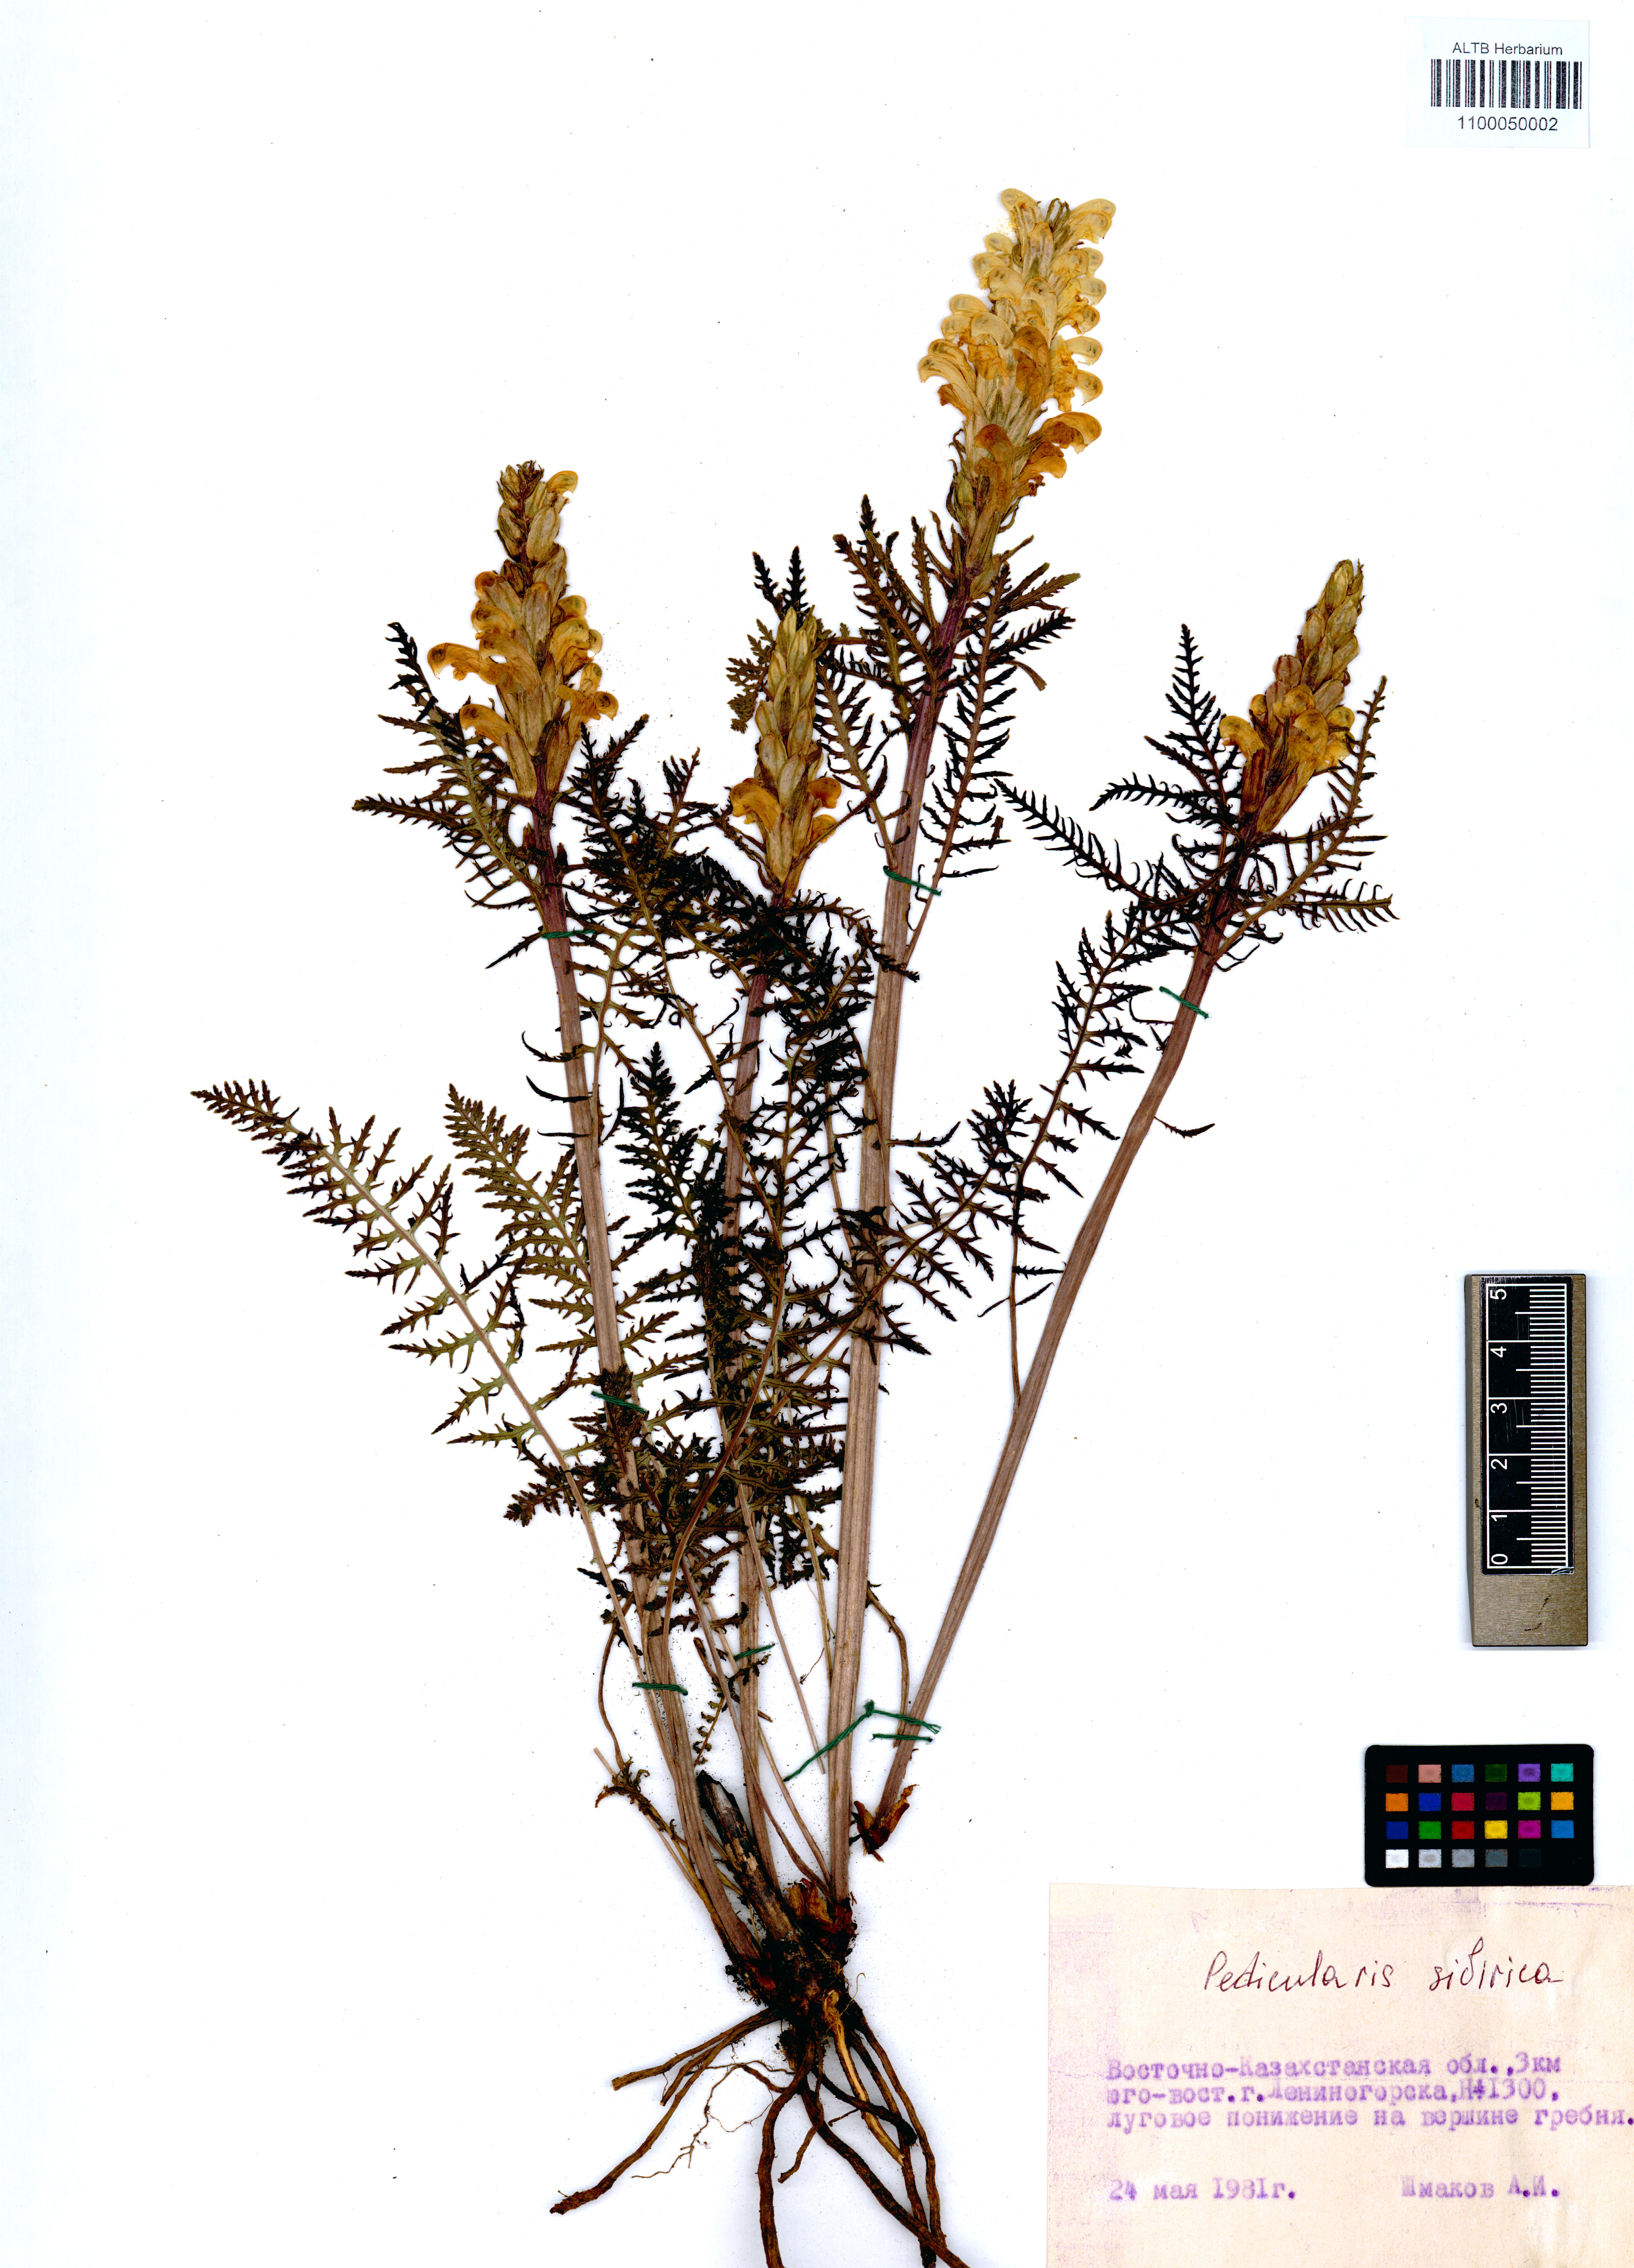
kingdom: Plantae
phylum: Tracheophyta
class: Magnoliopsida
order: Lamiales
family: Orobanchaceae
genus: Pedicularis
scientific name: Pedicularis sibirica
